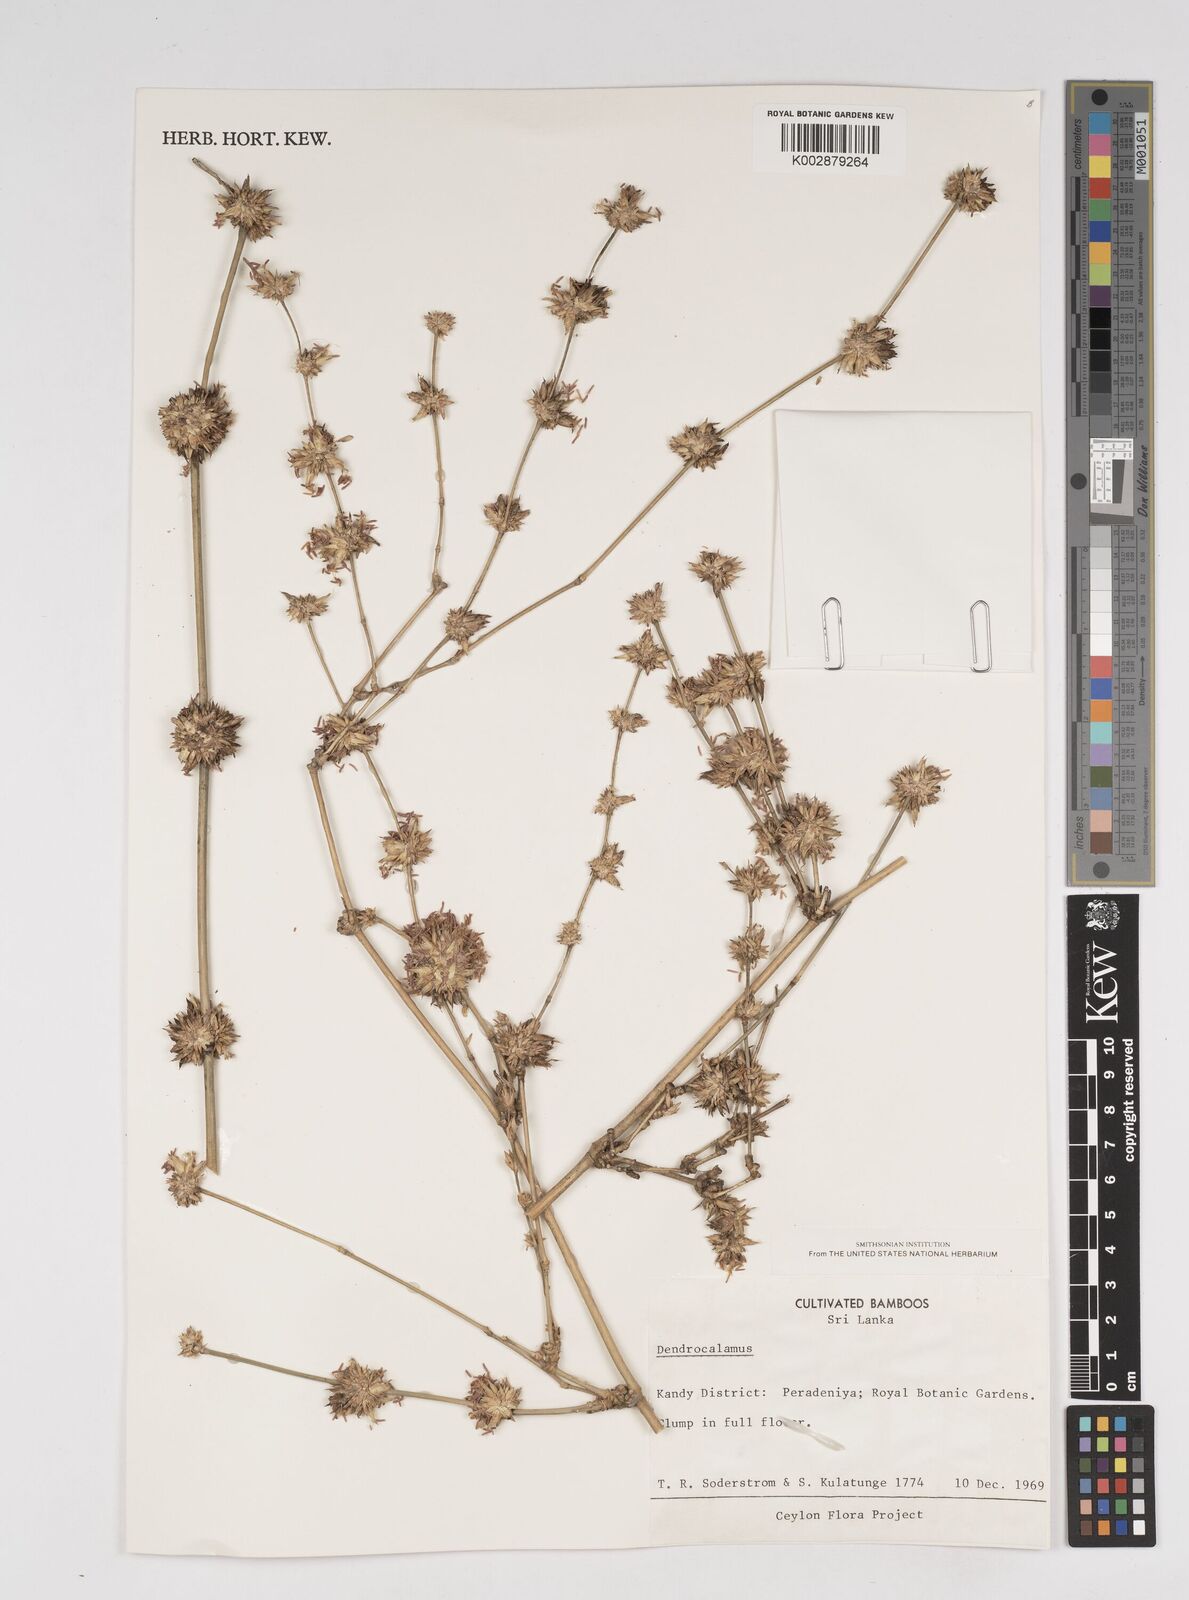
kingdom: Plantae
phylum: Tracheophyta
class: Liliopsida
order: Poales
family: Poaceae
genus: Dendrocalamus
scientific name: Dendrocalamus
